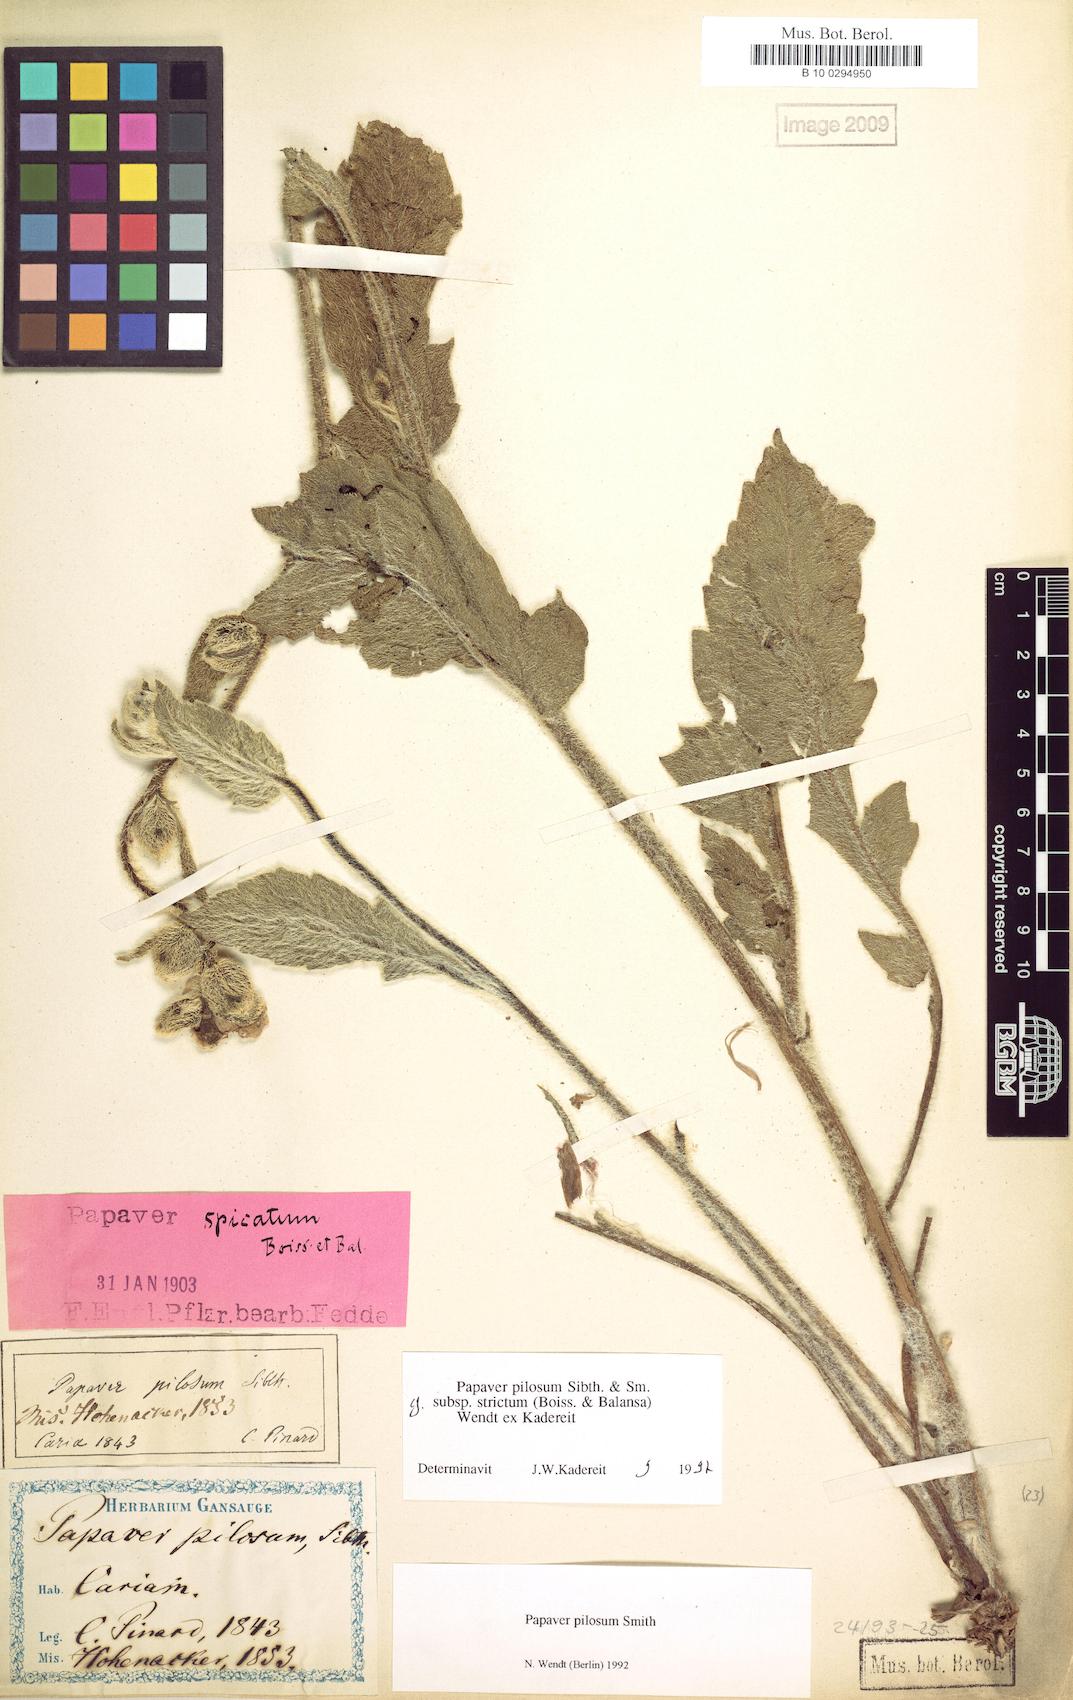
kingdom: Plantae
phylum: Tracheophyta
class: Magnoliopsida
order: Ranunculales
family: Papaveraceae
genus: Papaver
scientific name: Papaver pilosum
